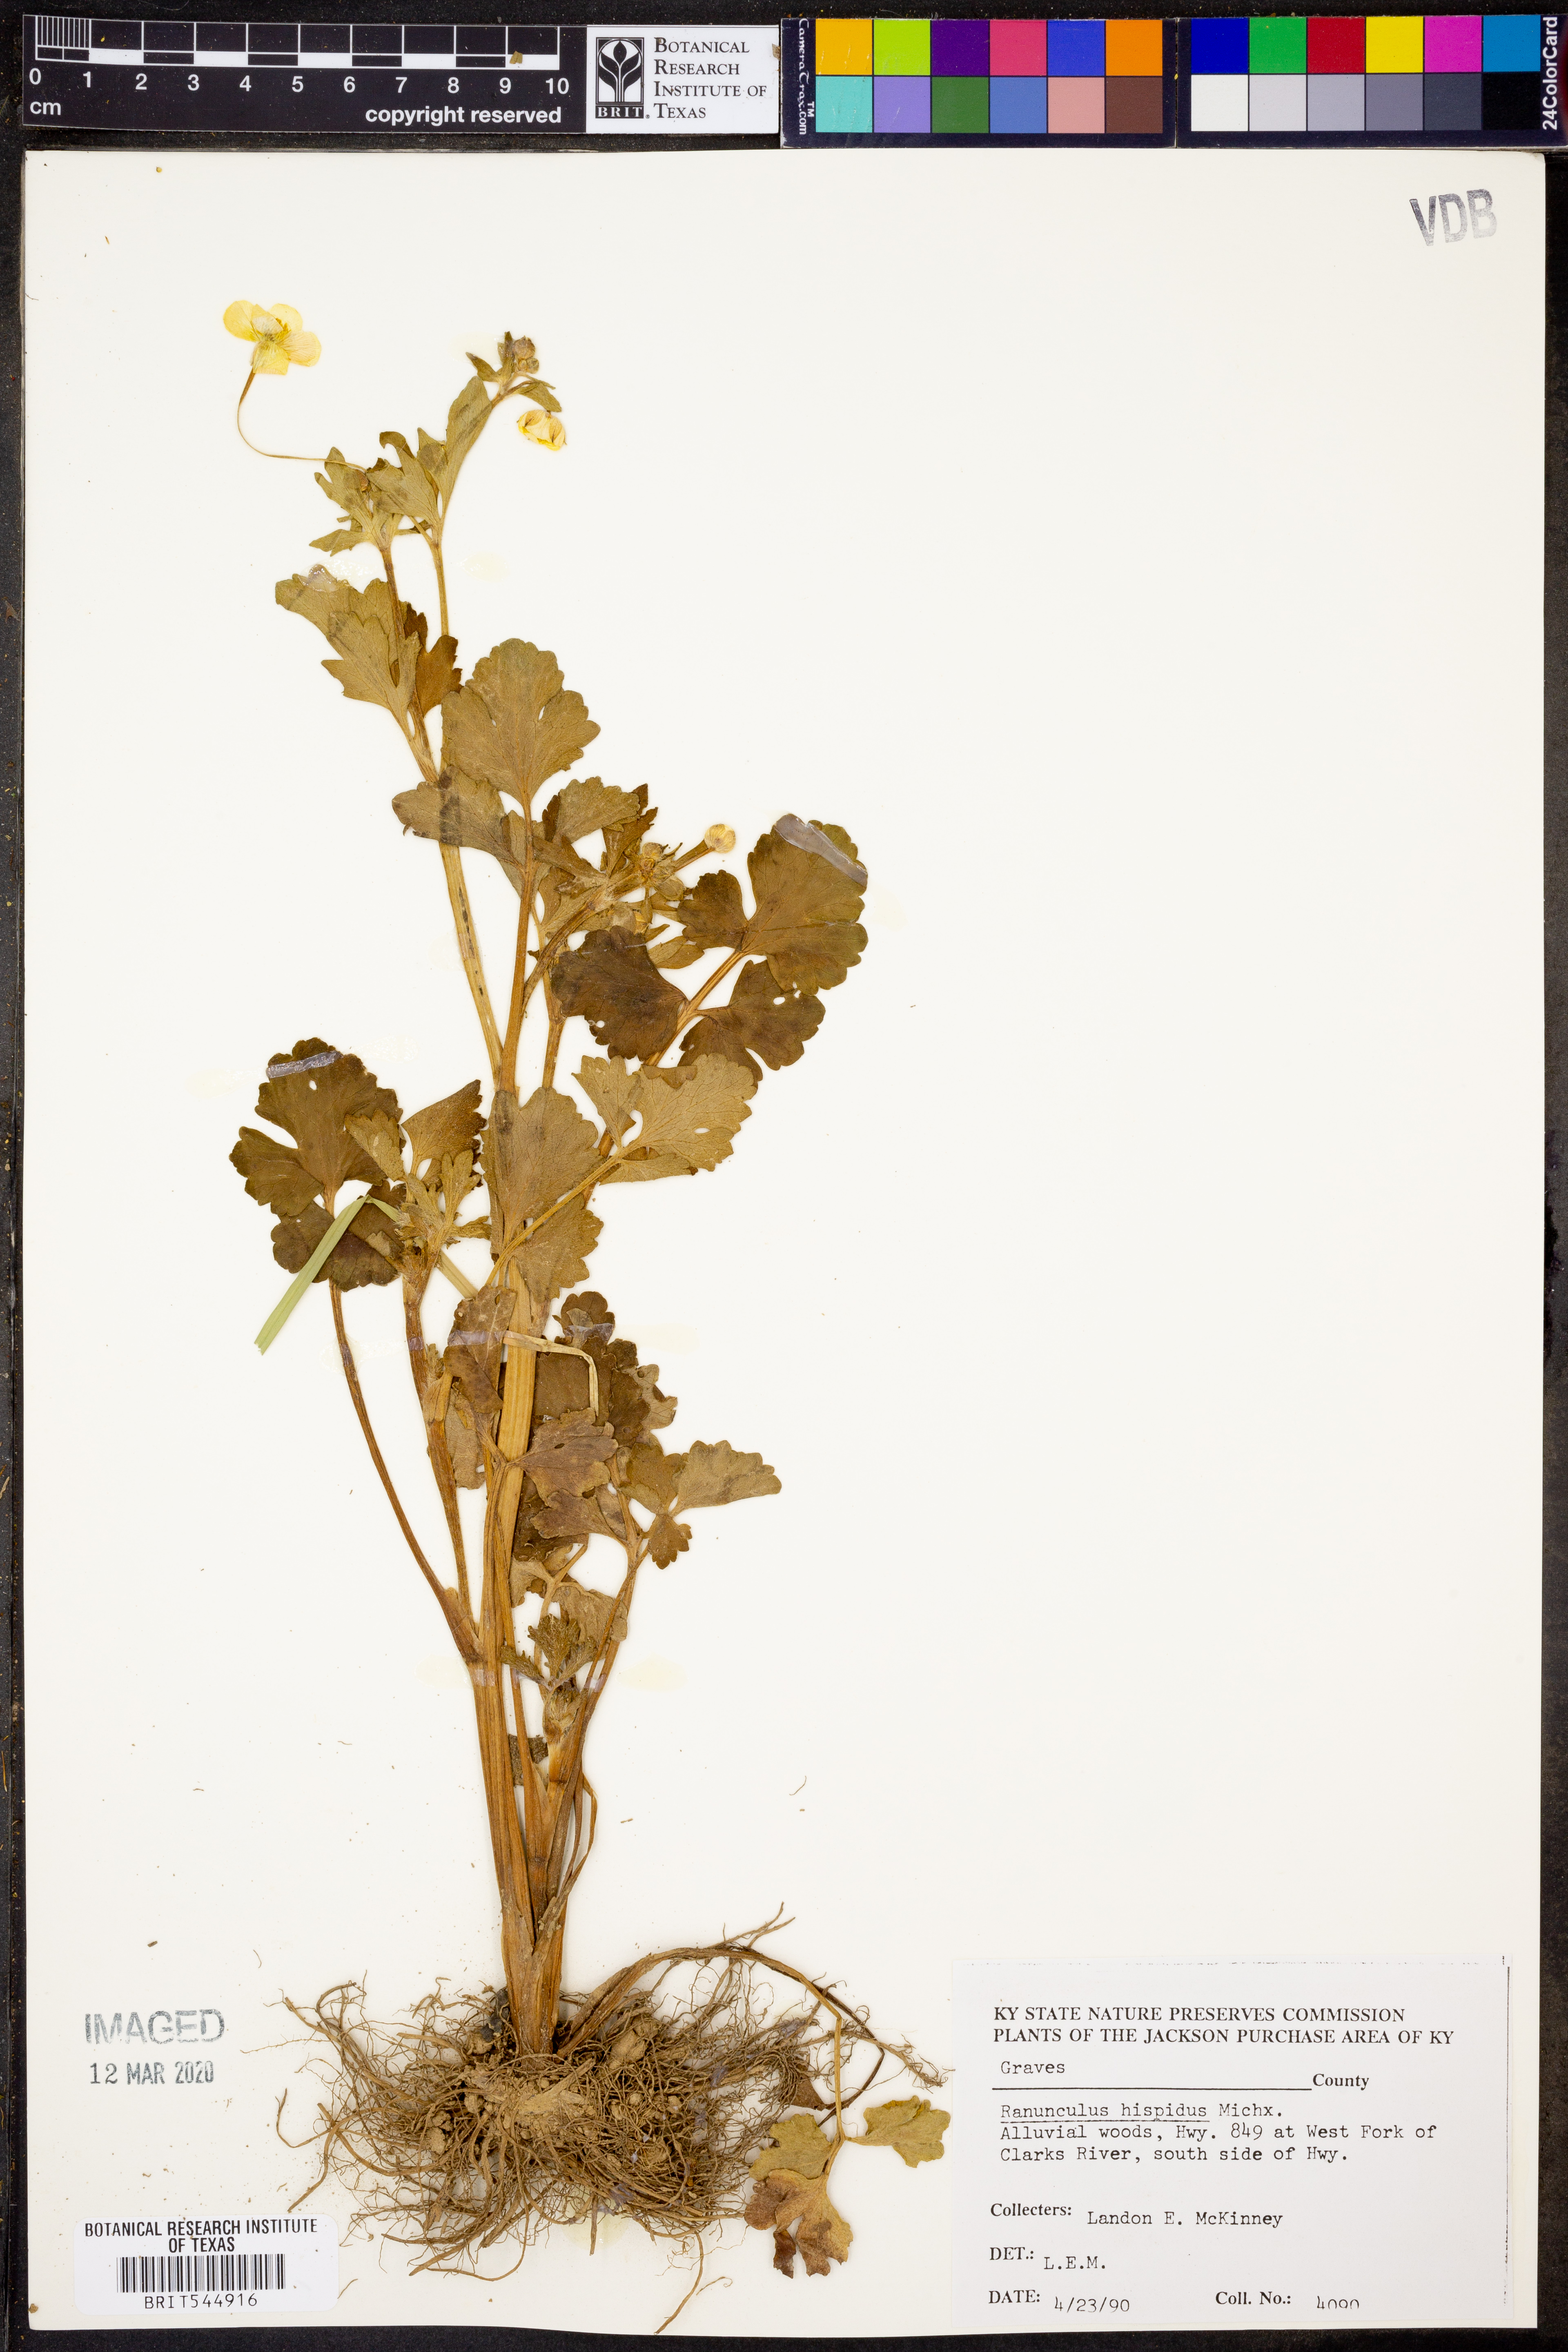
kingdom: Plantae
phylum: Tracheophyta
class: Magnoliopsida
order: Ranunculales
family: Ranunculaceae
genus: Ranunculus
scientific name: Ranunculus hispidus
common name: Bristly buttercup
